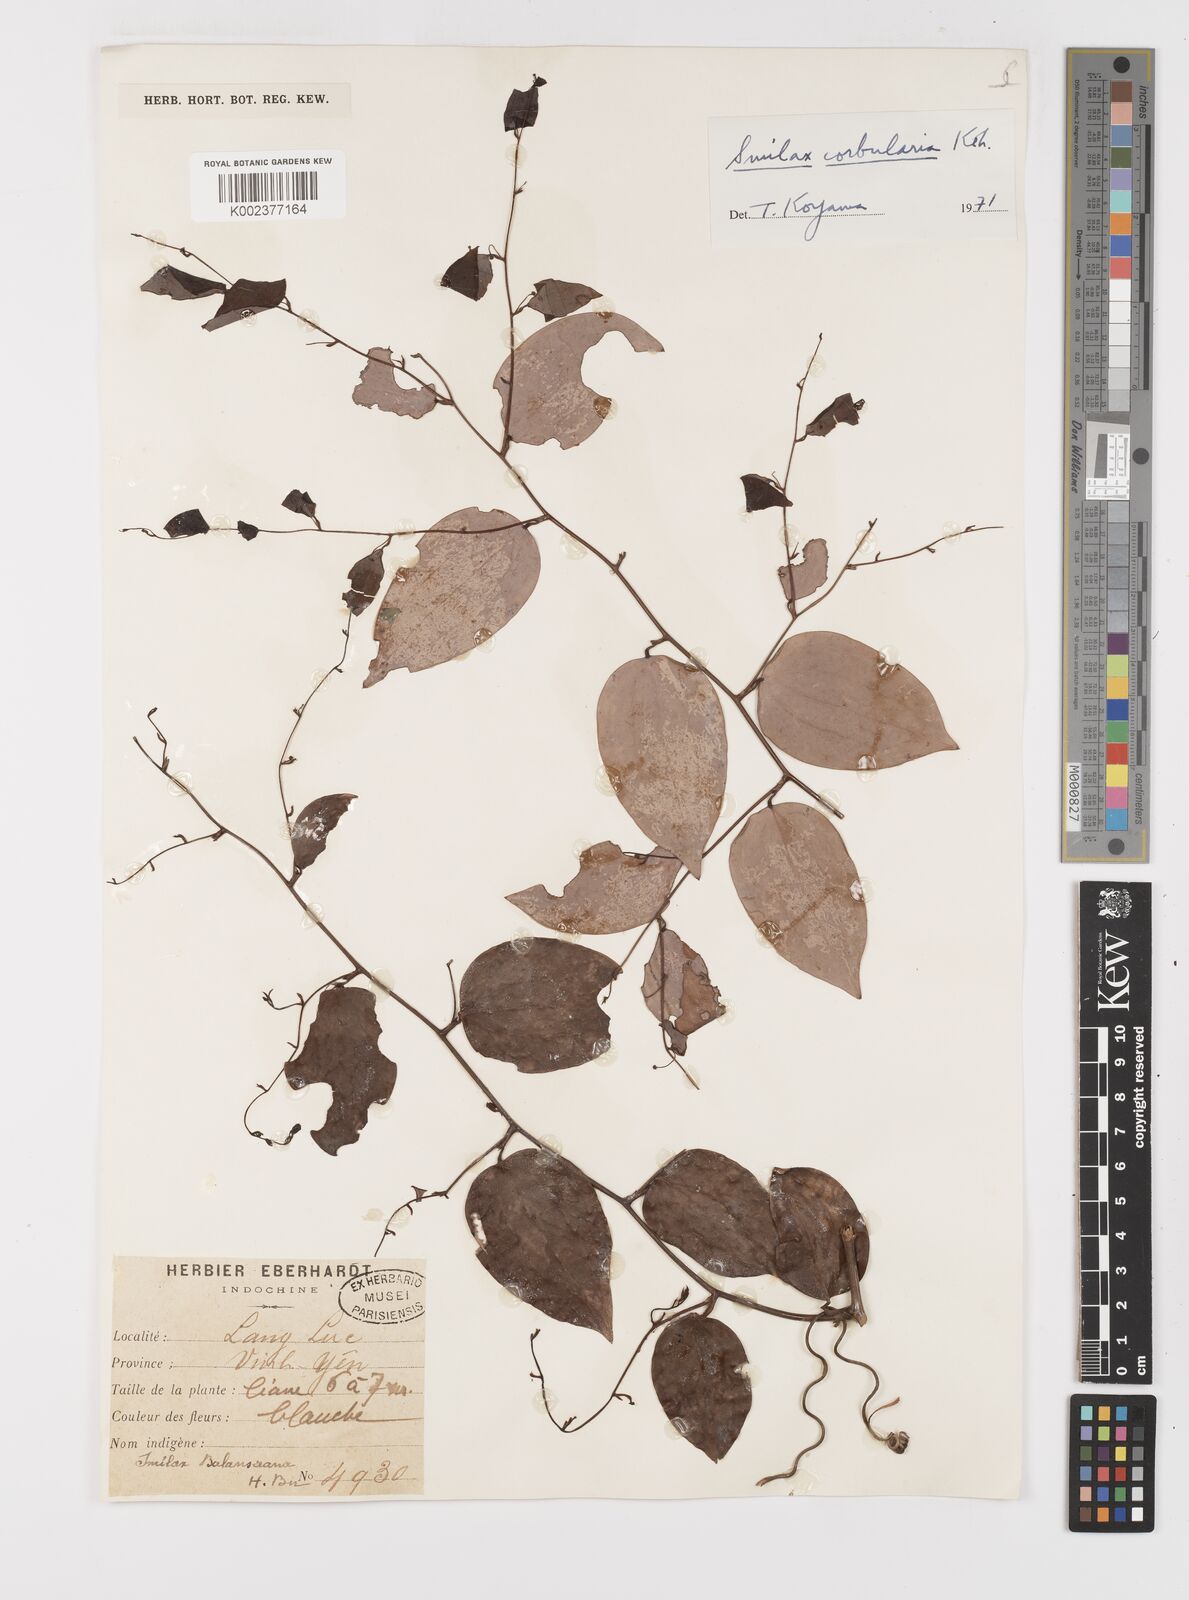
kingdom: Plantae
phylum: Tracheophyta
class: Liliopsida
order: Liliales
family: Smilacaceae
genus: Smilax
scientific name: Smilax corbularia
